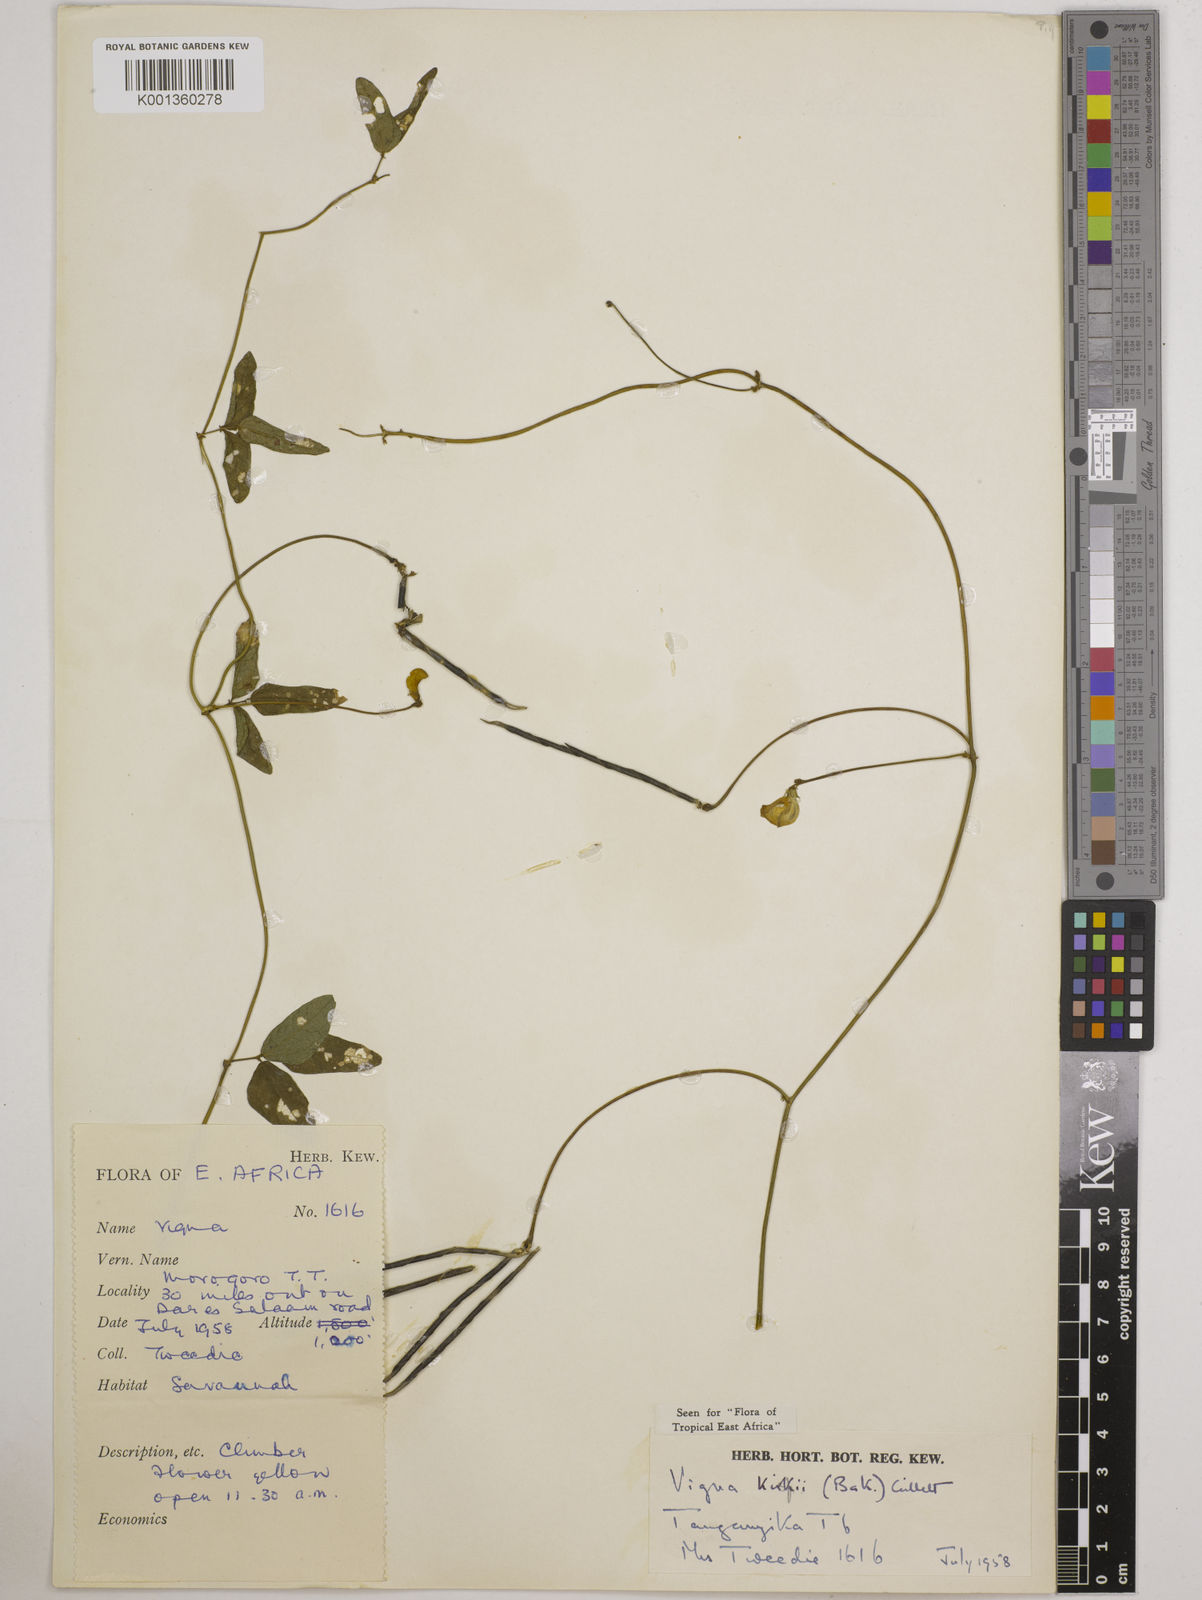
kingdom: Plantae
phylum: Tracheophyta
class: Magnoliopsida
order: Fabales
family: Fabaceae
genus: Vigna
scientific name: Vigna kirkii
